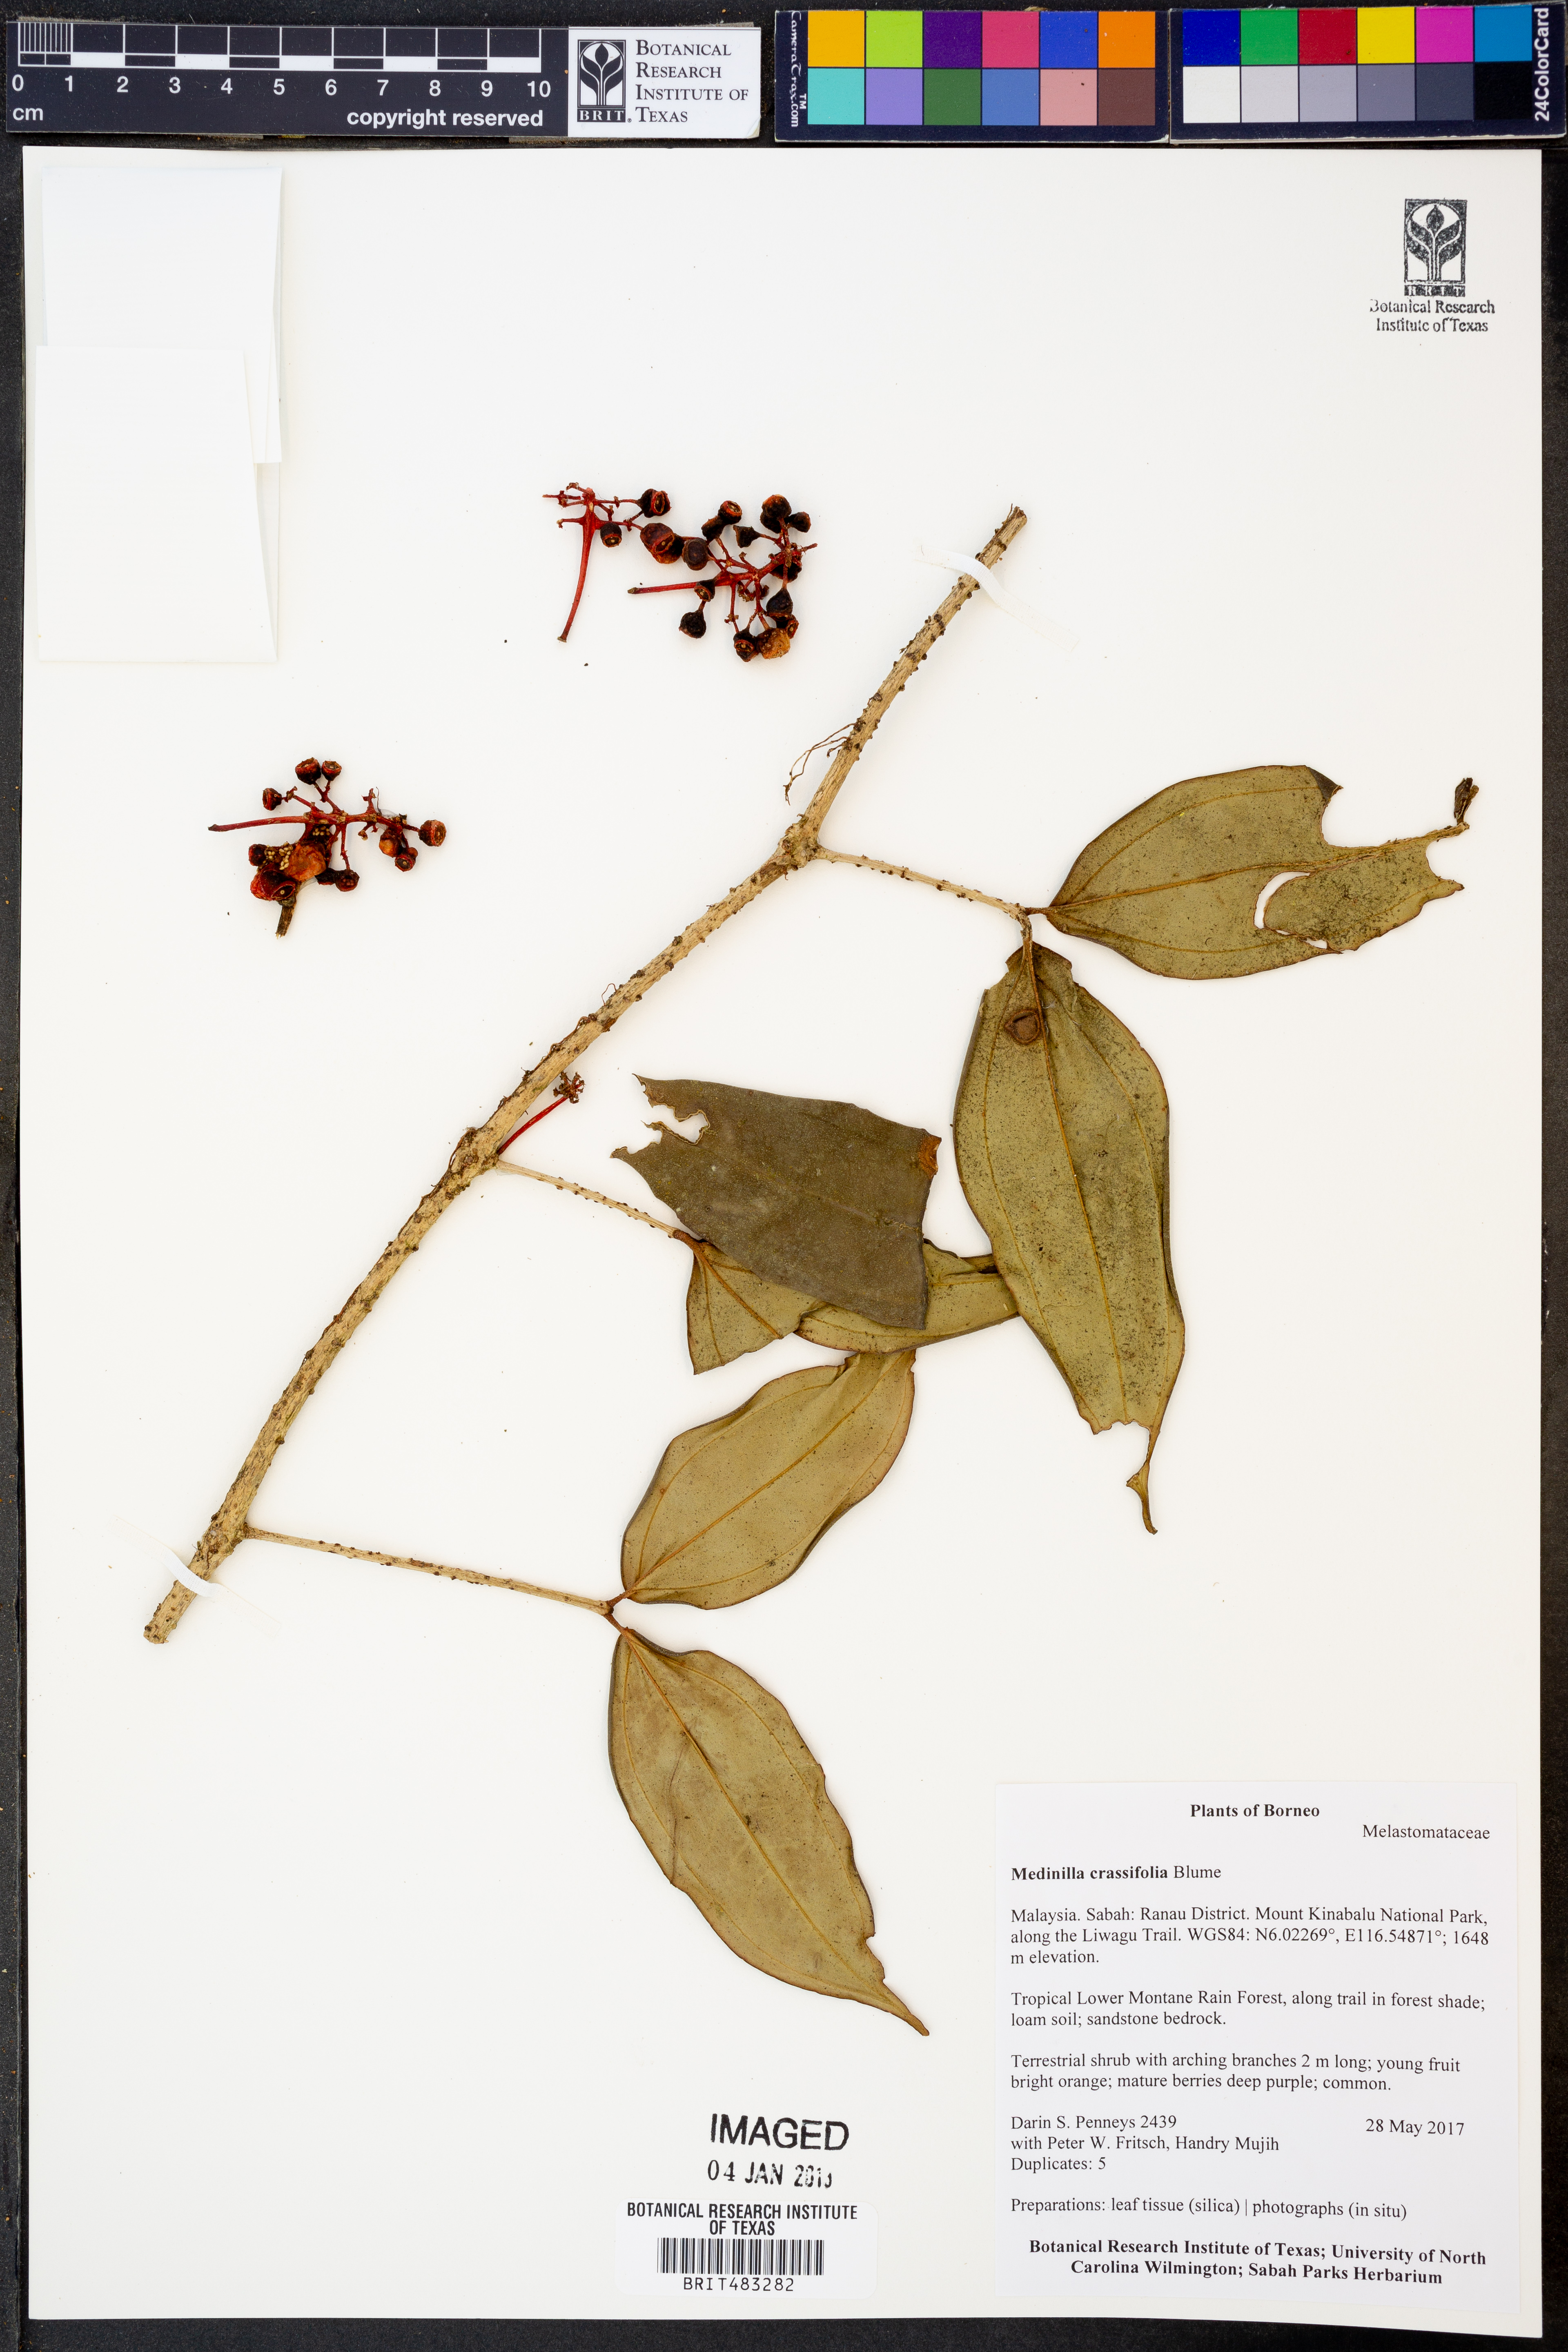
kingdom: Plantae
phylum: Tracheophyta
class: Magnoliopsida
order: Myrtales
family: Melastomataceae
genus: Medinilla
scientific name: Medinilla crassifolia
